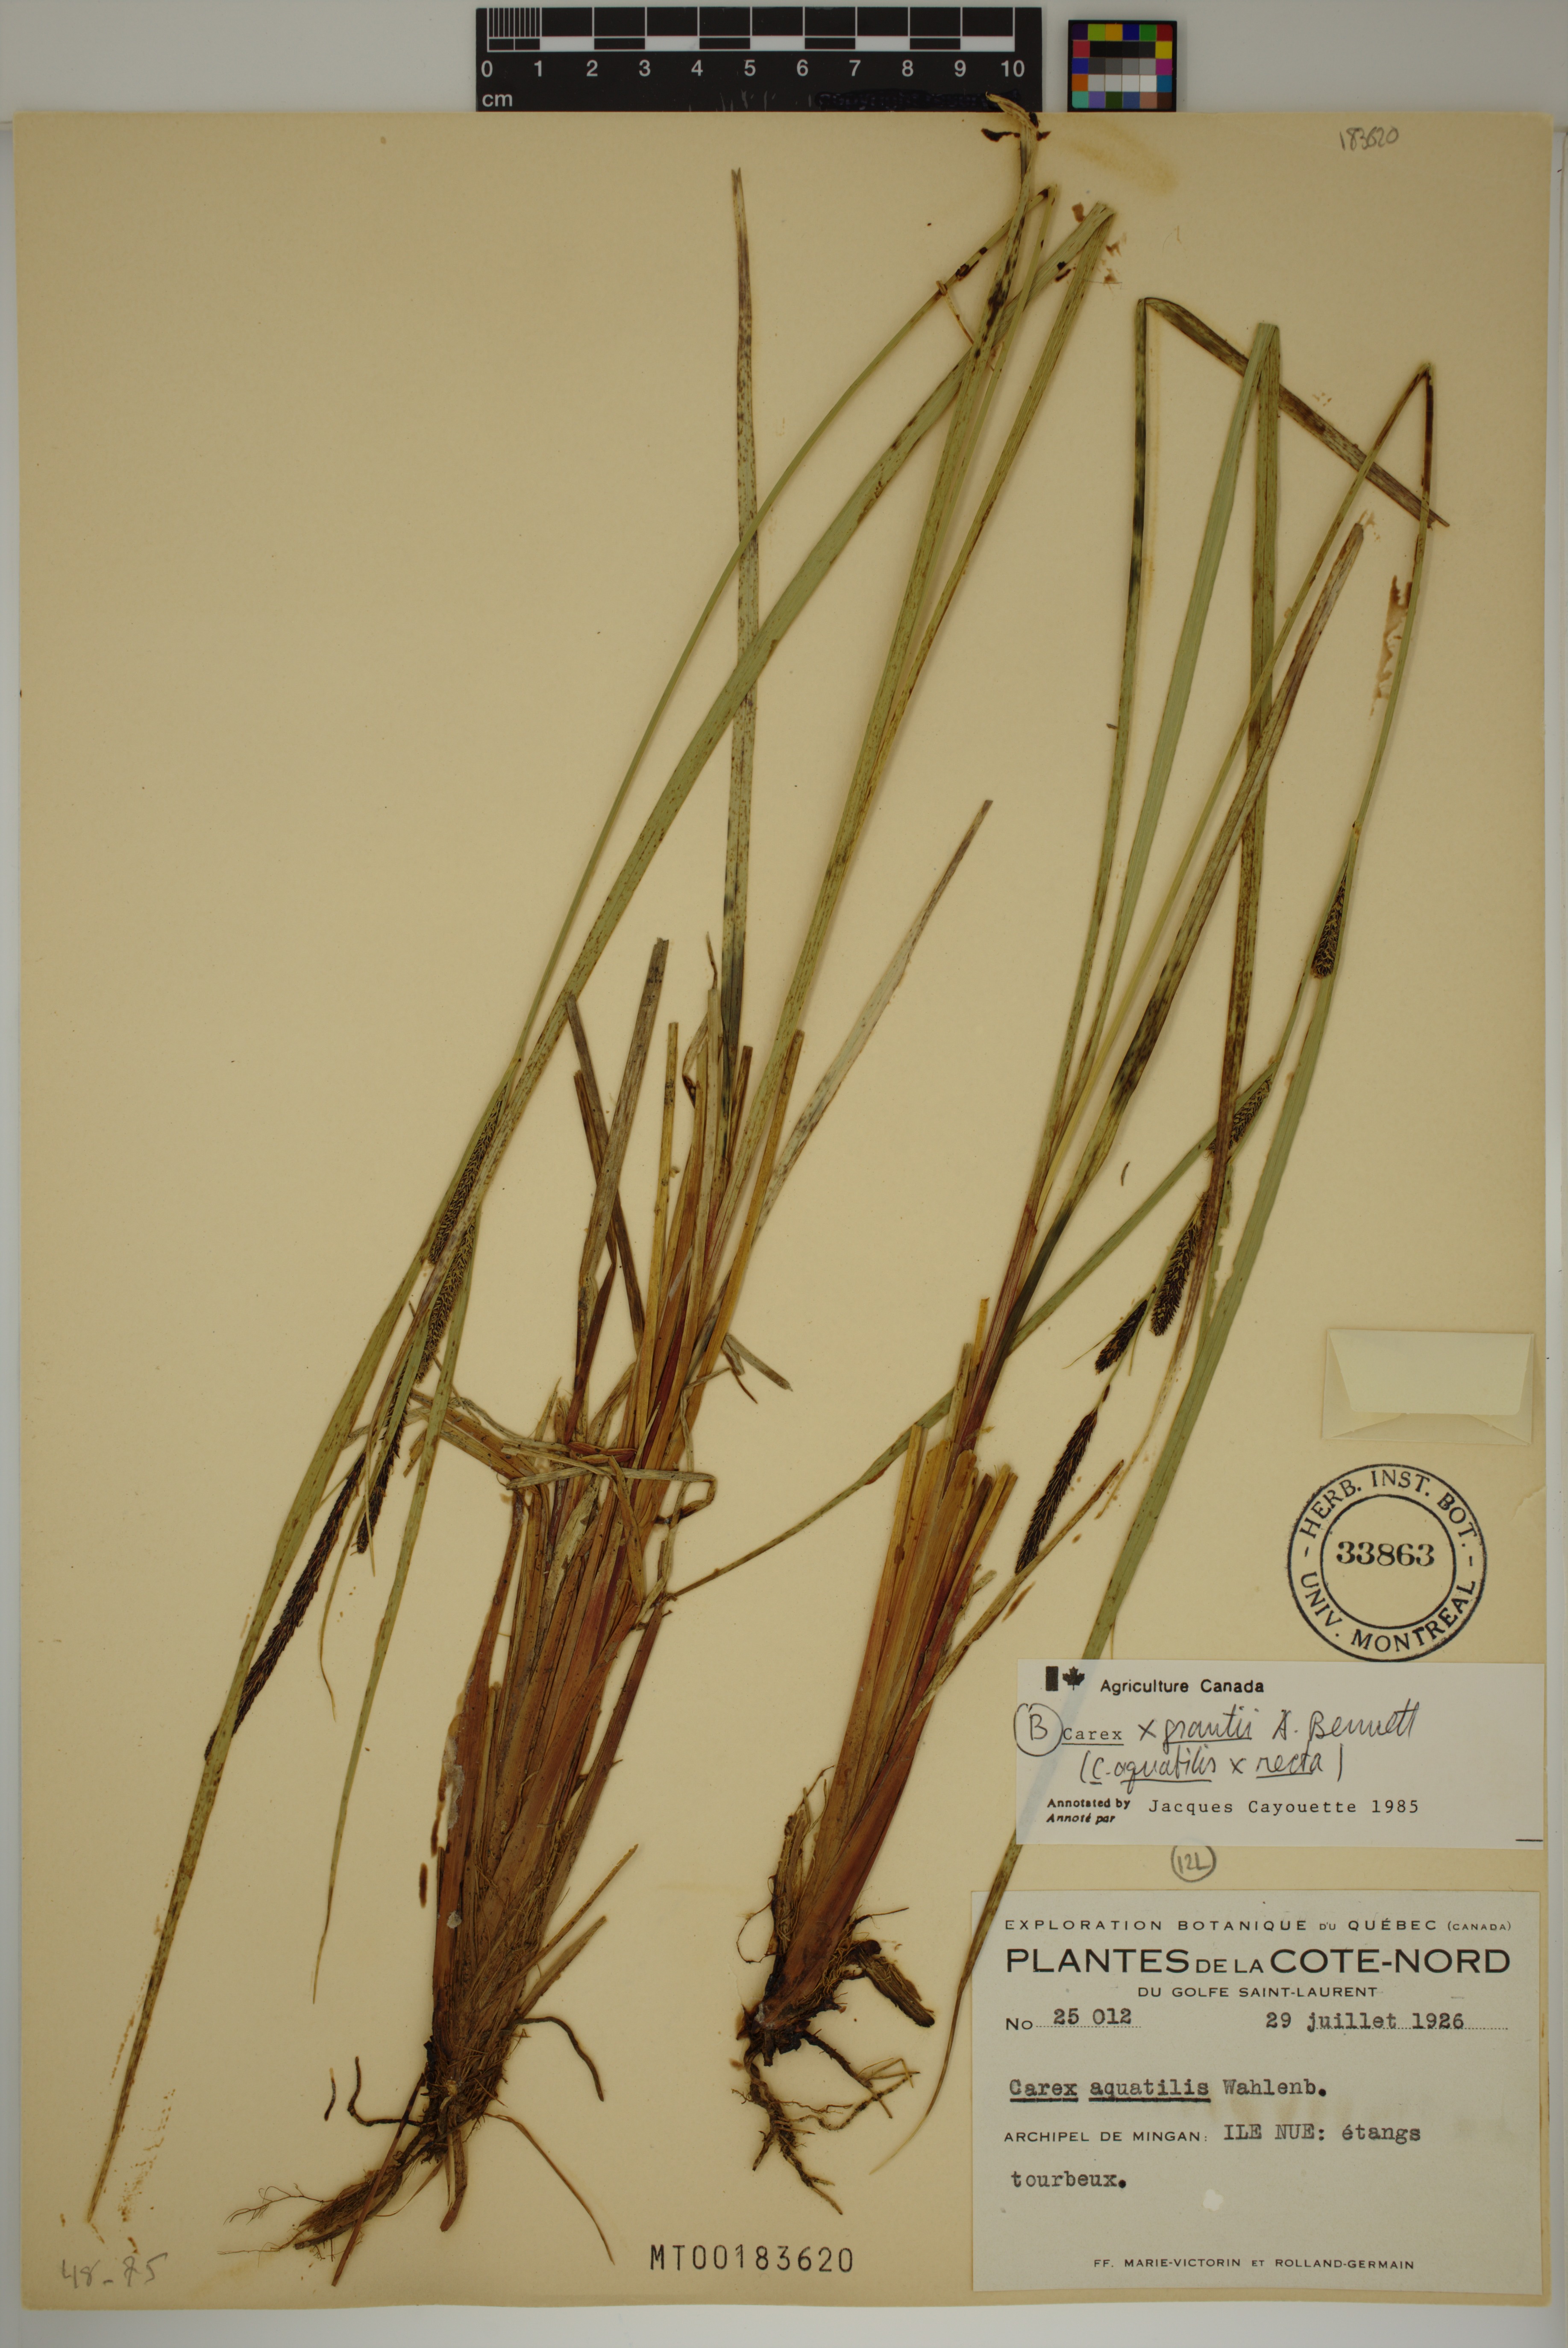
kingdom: Plantae
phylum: Tracheophyta
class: Liliopsida
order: Poales
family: Cyperaceae
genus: Carex
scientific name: Carex grantii
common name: Grant's sedge
